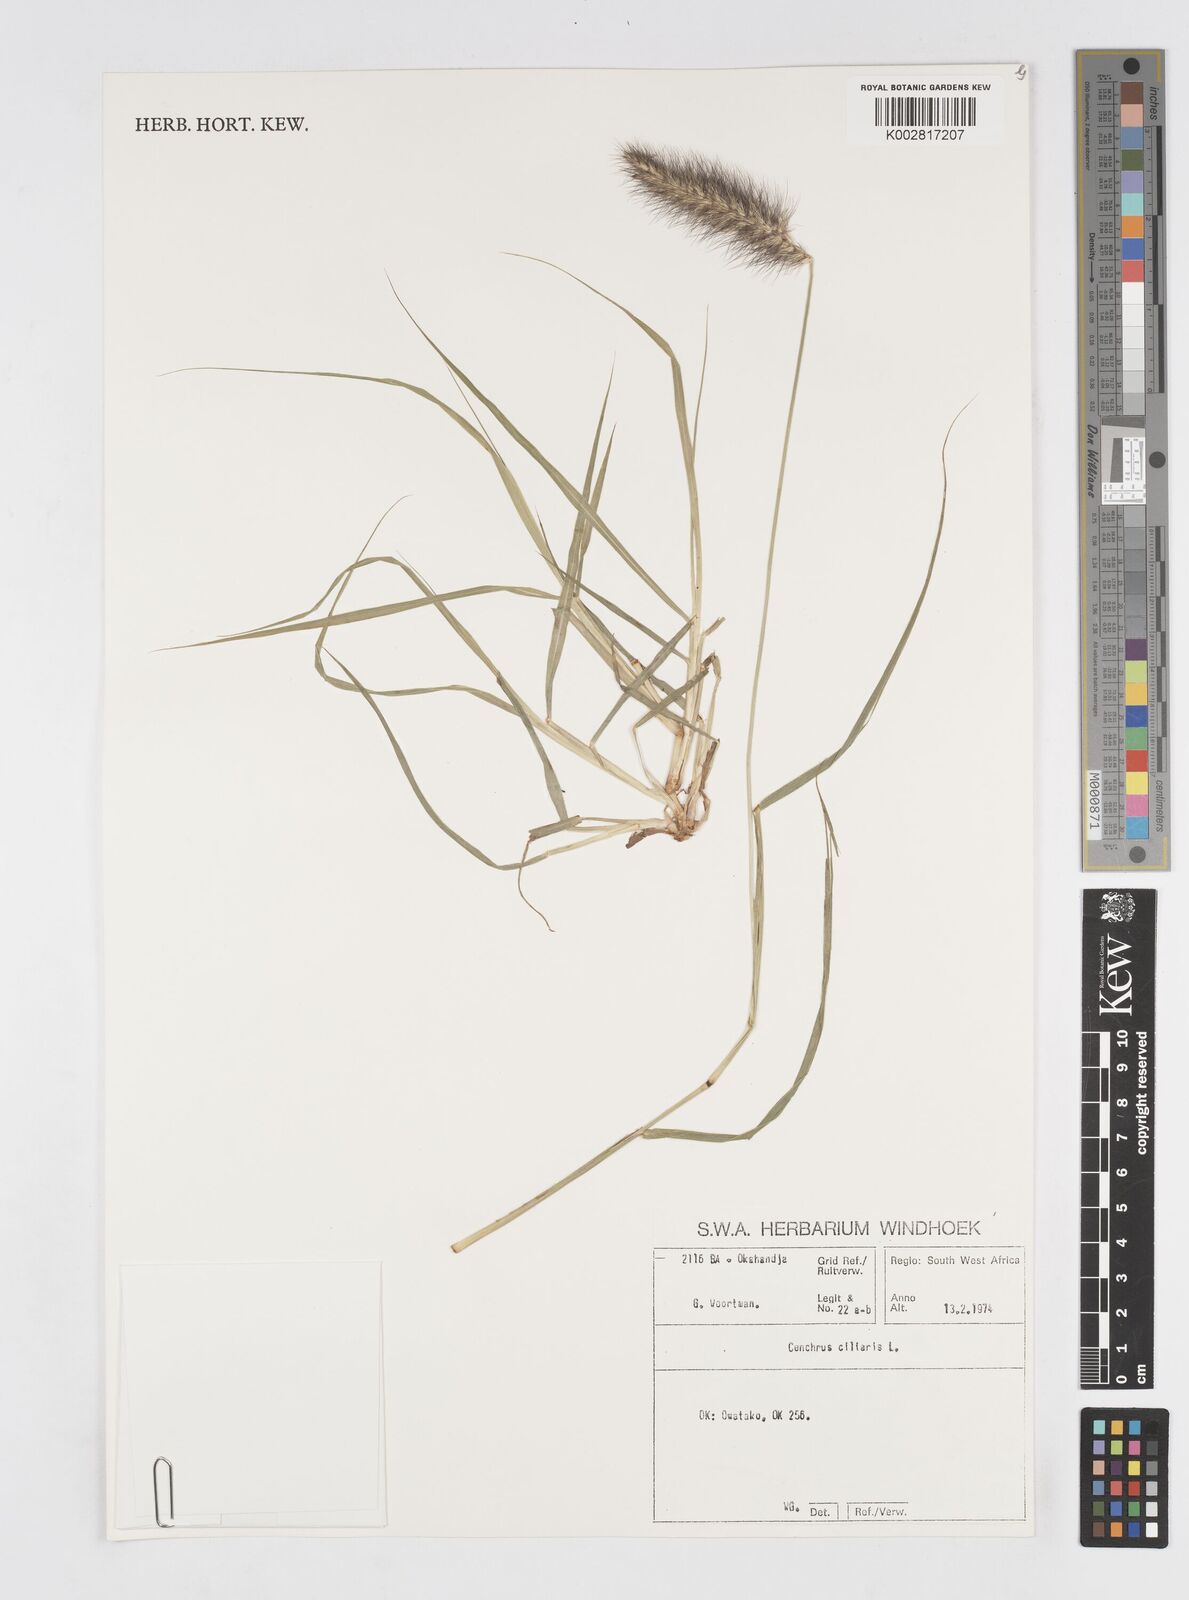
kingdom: Plantae
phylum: Tracheophyta
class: Liliopsida
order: Poales
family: Poaceae
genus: Cenchrus
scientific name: Cenchrus ciliaris
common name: Buffelgrass
